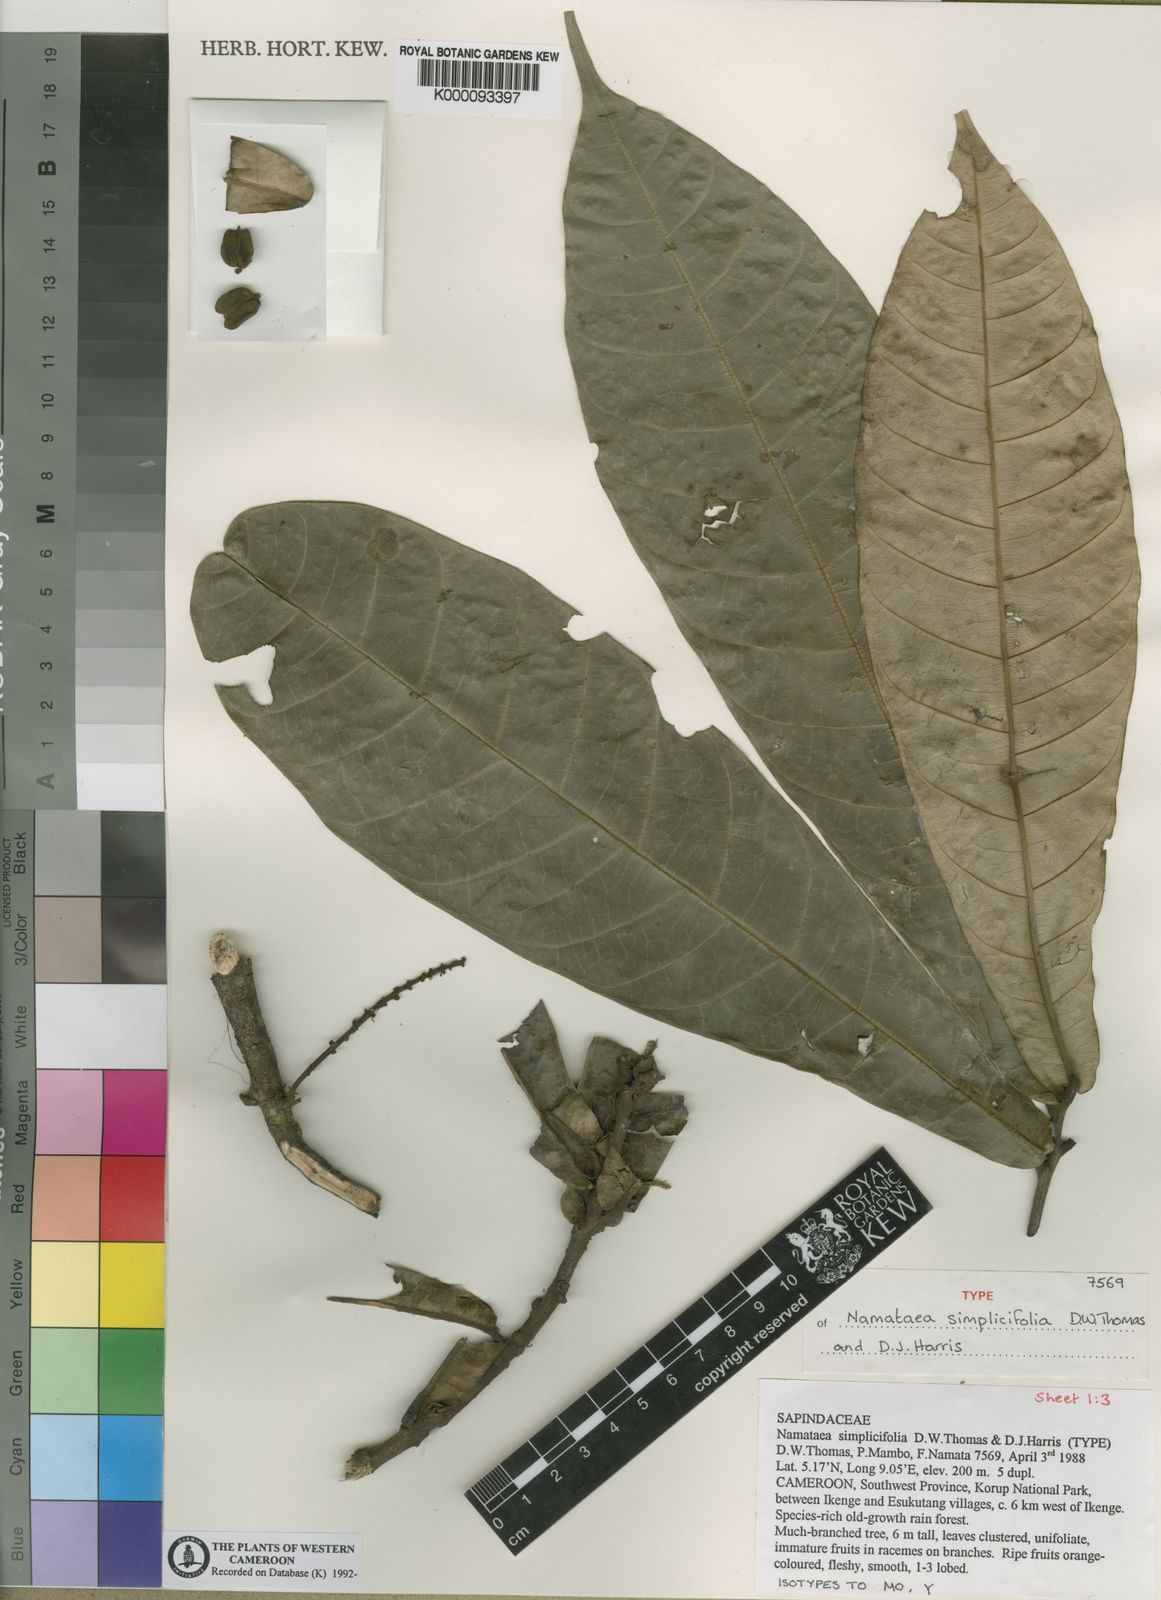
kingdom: Plantae
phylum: Tracheophyta
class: Magnoliopsida
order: Sapindales
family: Sapindaceae
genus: Namataea
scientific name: Namataea simplicifolia
